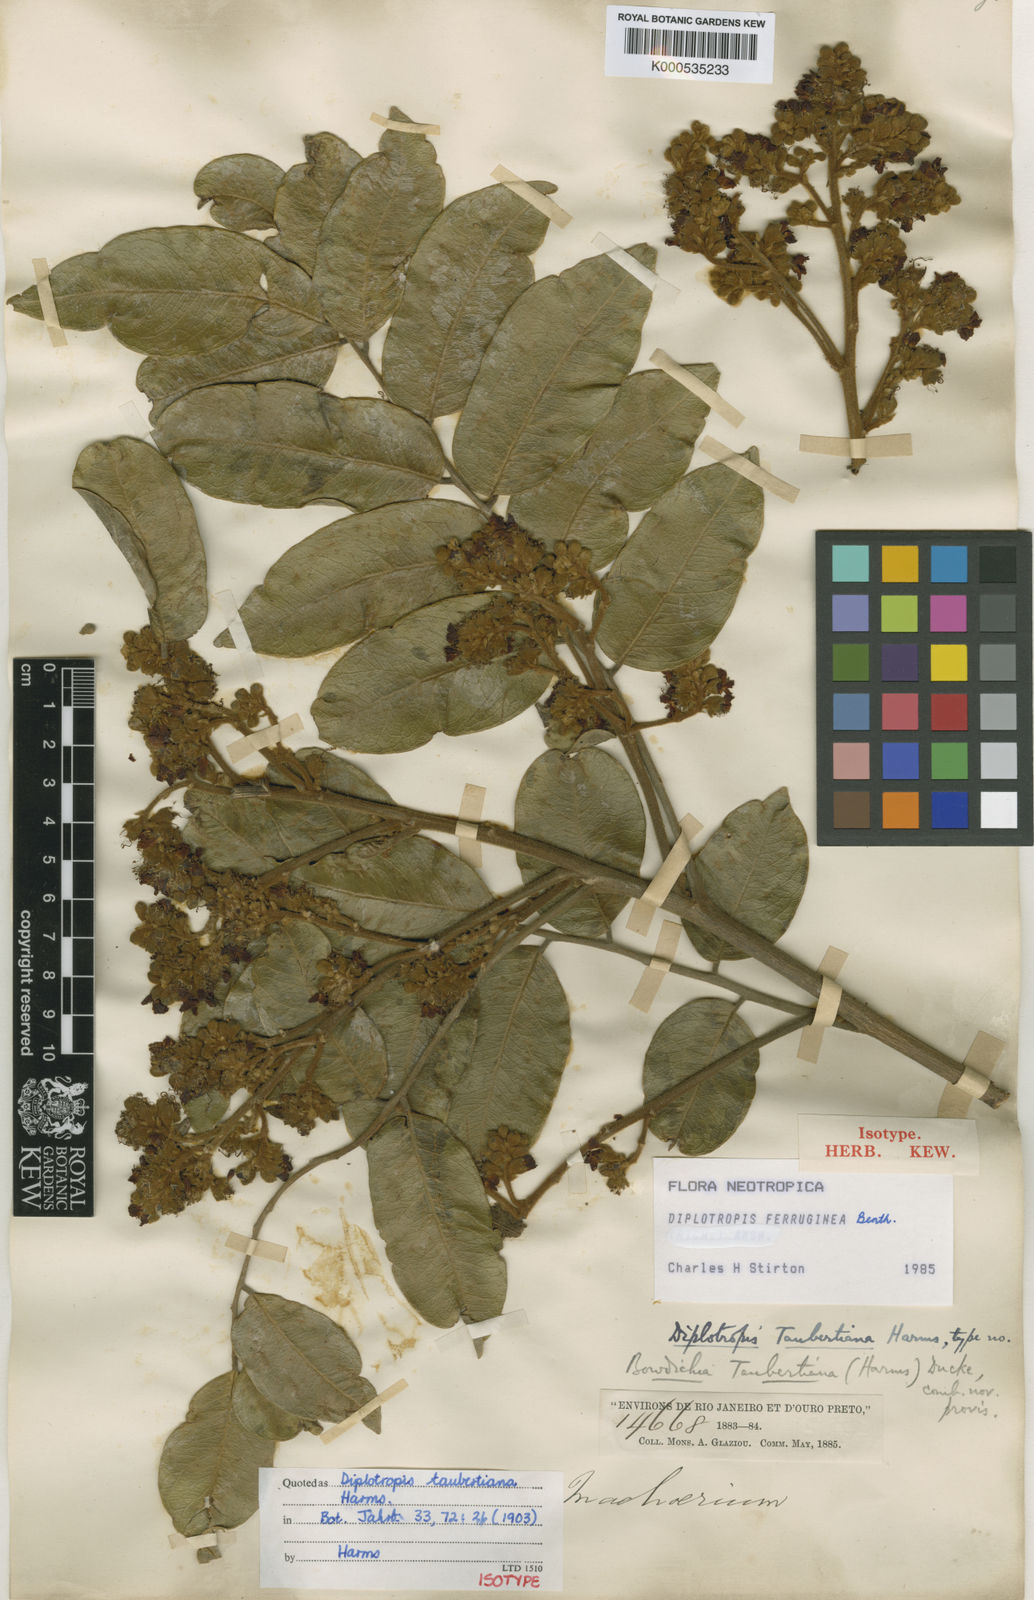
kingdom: Plantae
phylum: Tracheophyta
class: Magnoliopsida
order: Fabales
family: Fabaceae
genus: Diplotropis
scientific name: Diplotropis ferruginea
